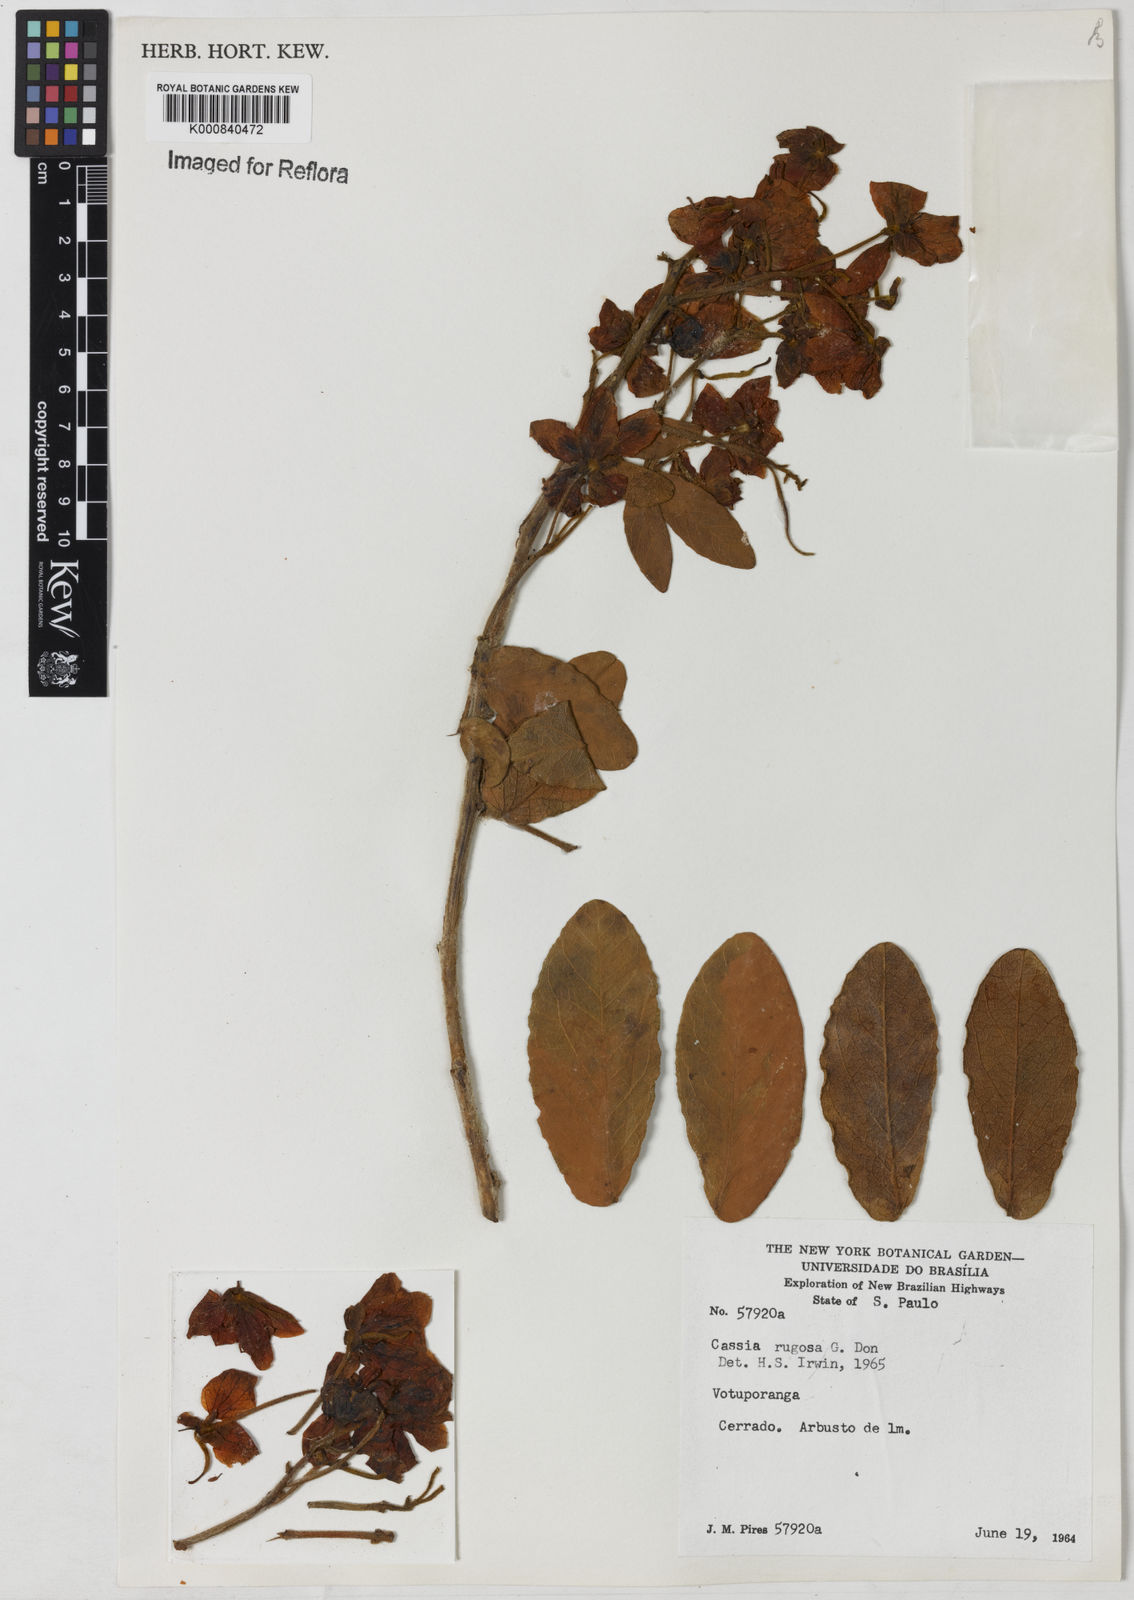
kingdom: Plantae
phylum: Tracheophyta
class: Magnoliopsida
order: Fabales
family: Fabaceae
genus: Senna
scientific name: Senna rugosa
